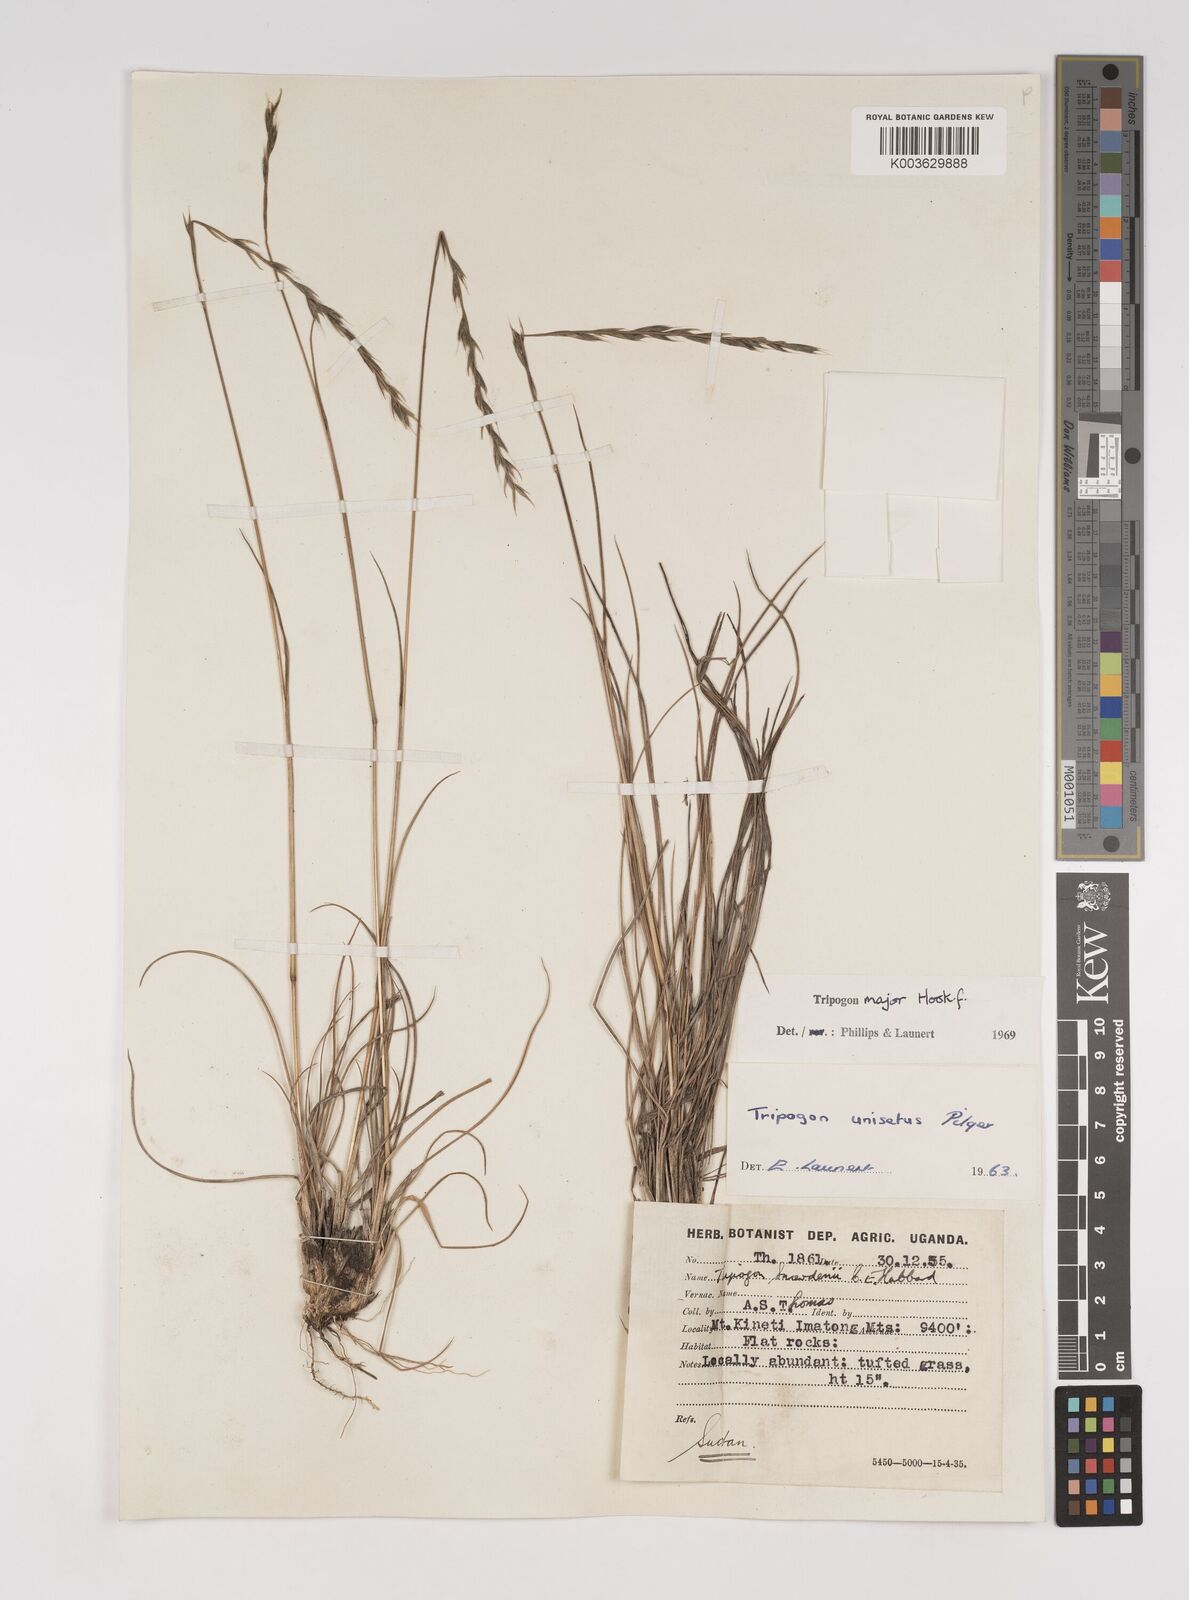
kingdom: Plantae
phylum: Tracheophyta
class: Liliopsida
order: Poales
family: Poaceae
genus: Tripogon
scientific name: Tripogon major
